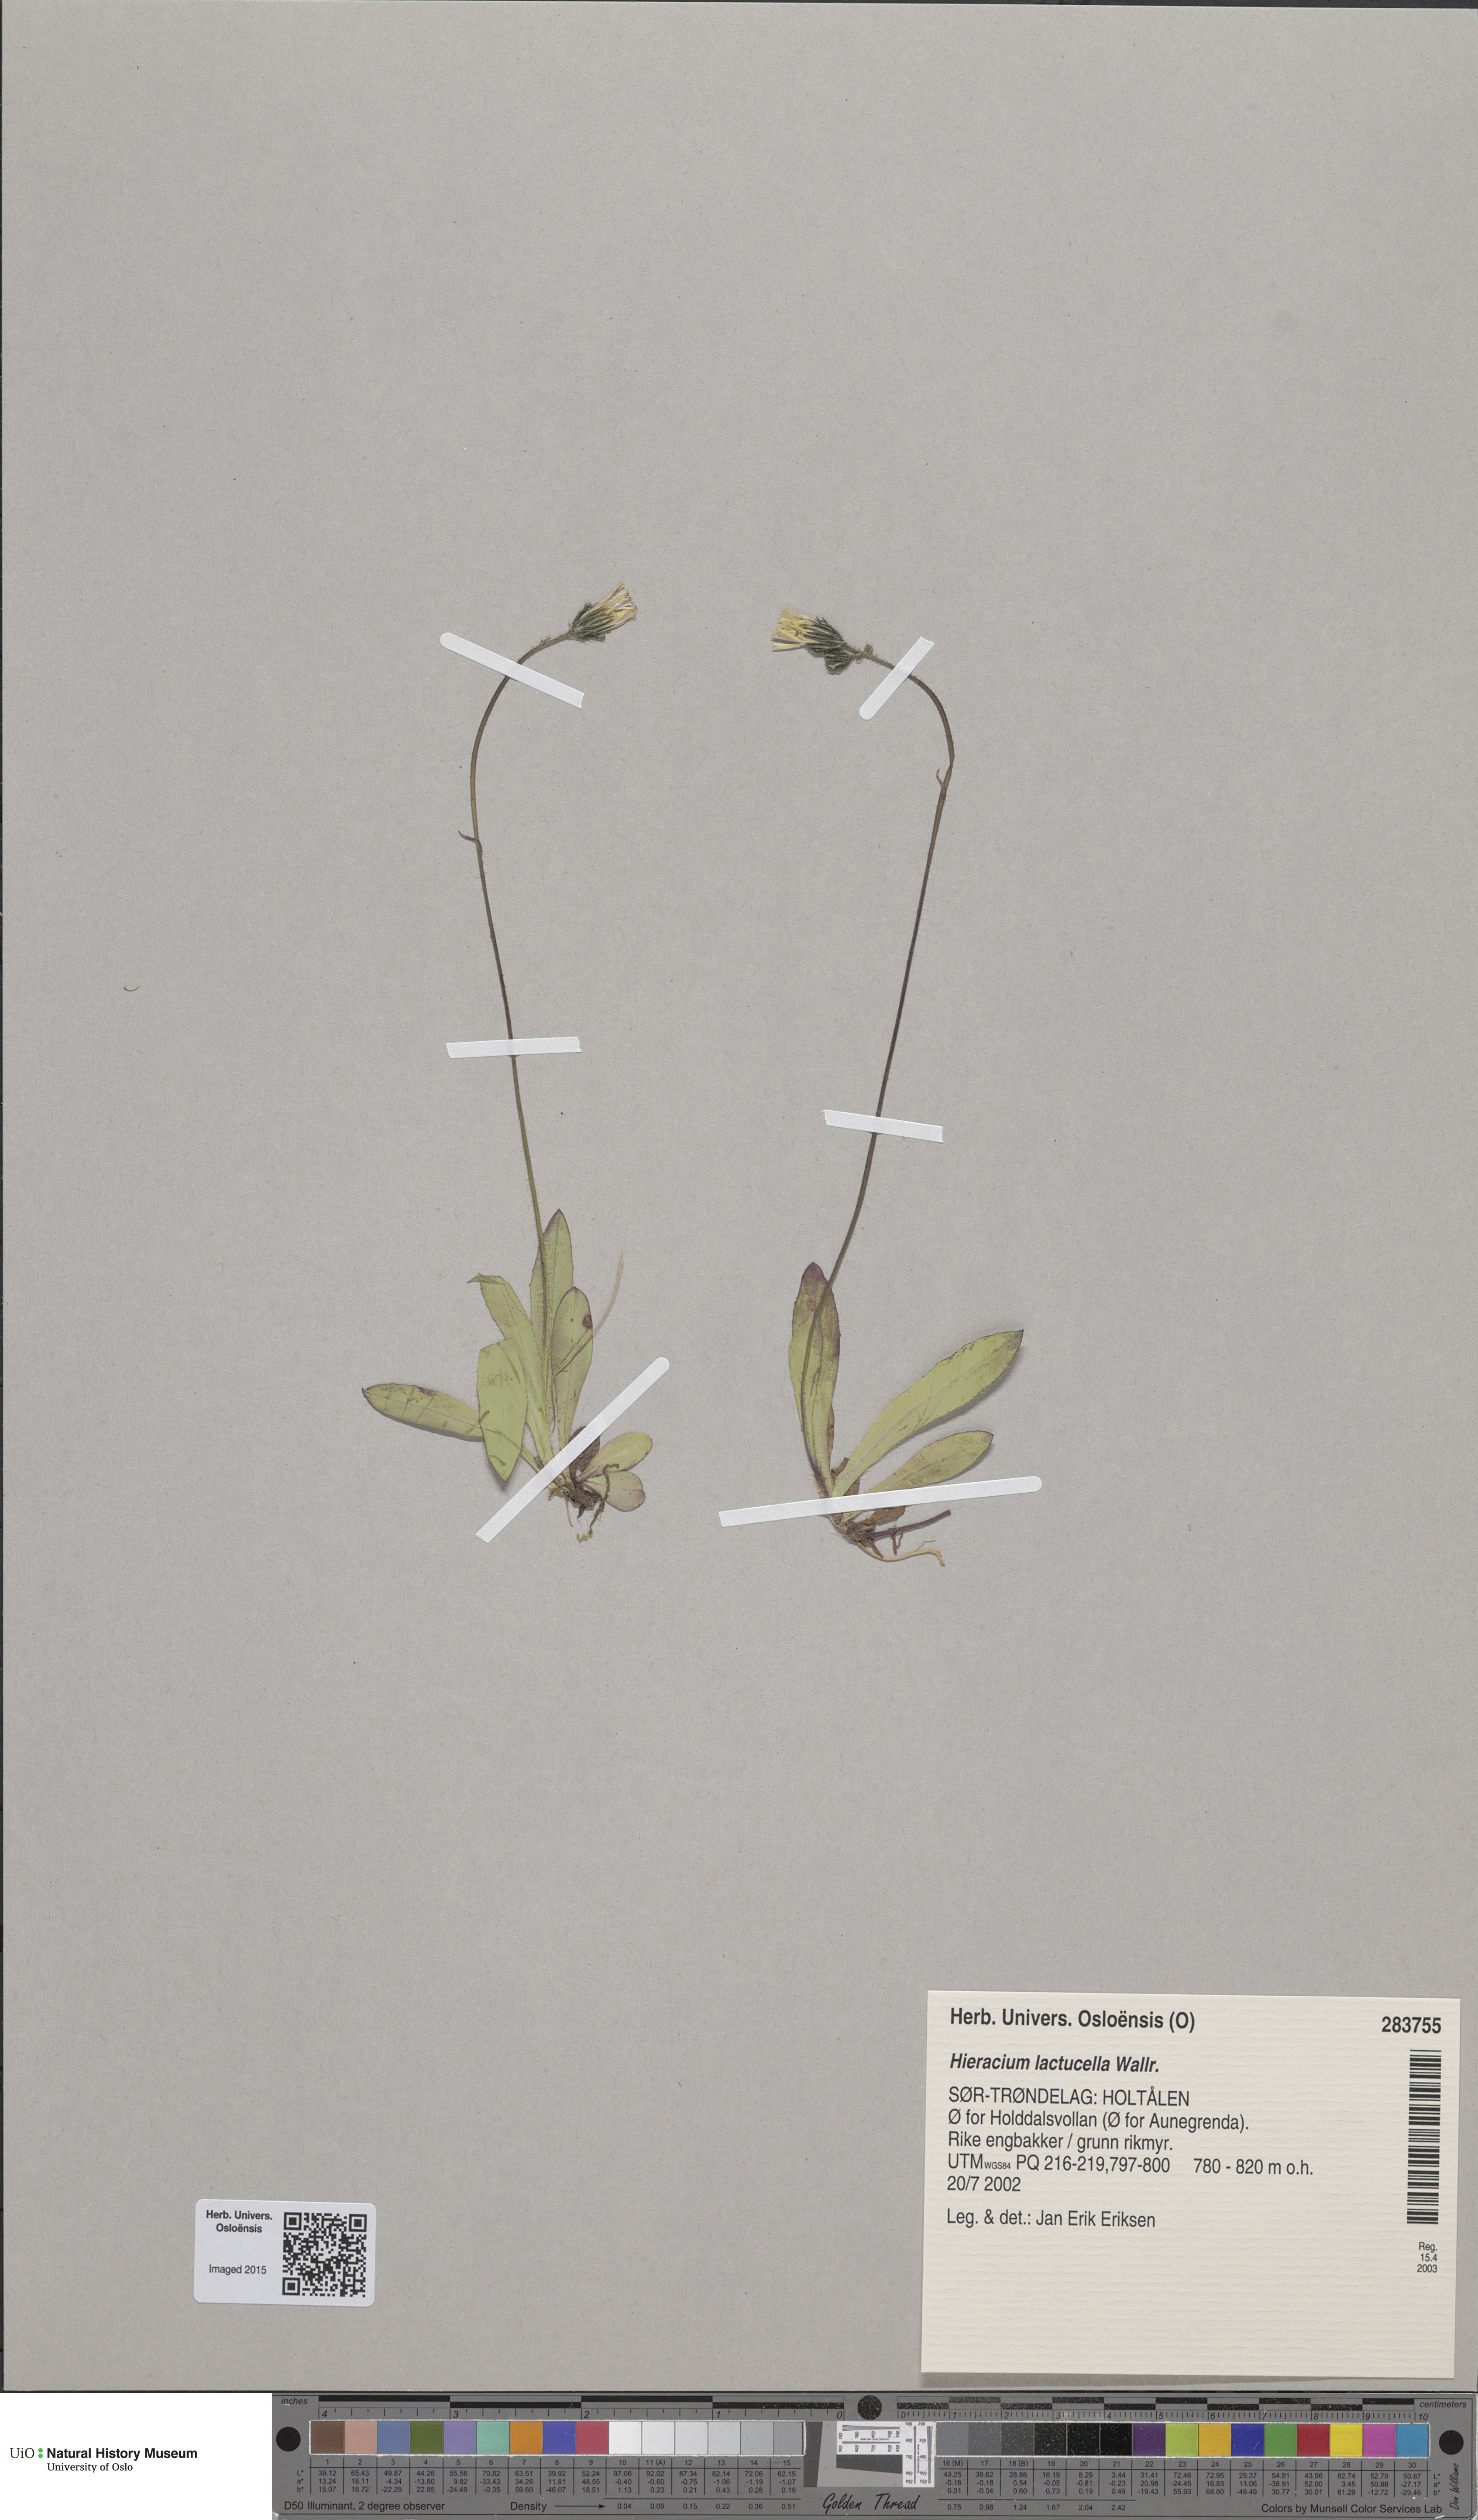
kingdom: Plantae
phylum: Tracheophyta
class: Magnoliopsida
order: Asterales
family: Asteraceae
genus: Pilosella
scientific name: Pilosella lactucella
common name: Glaucous fox-and-cubs
